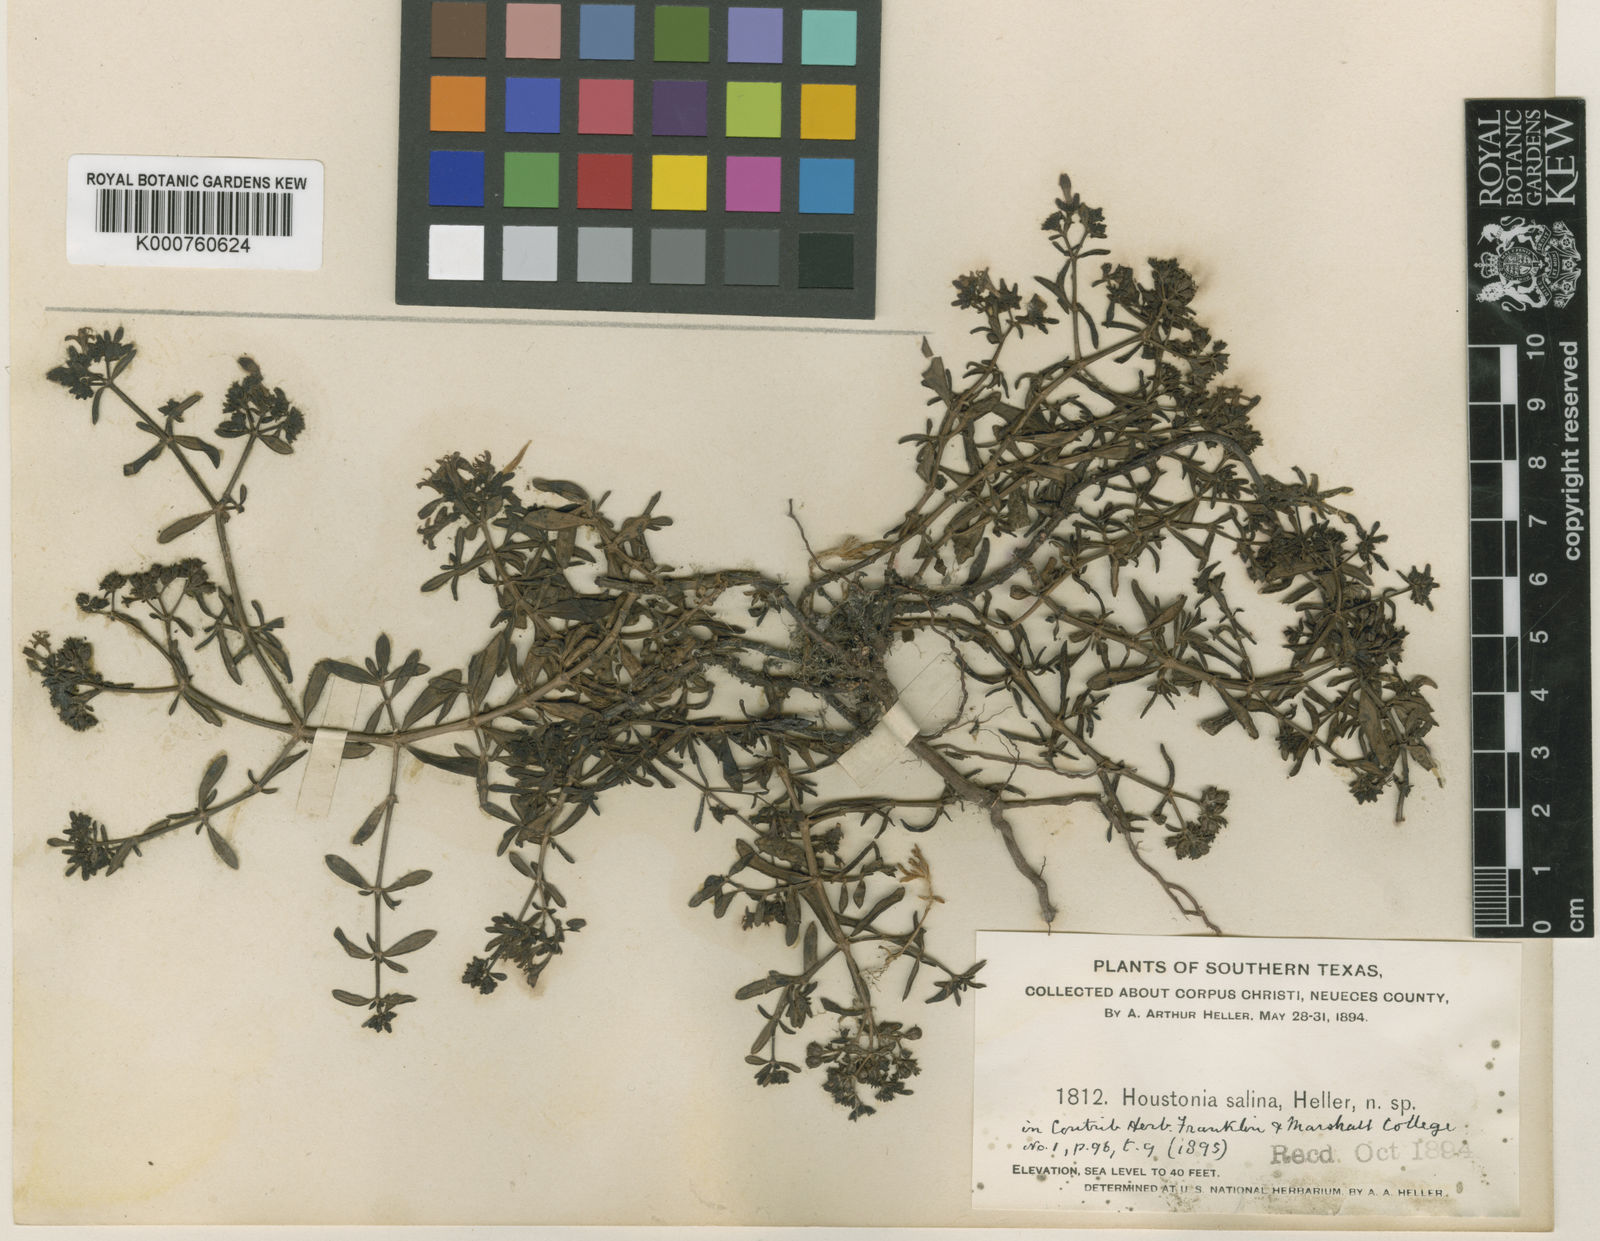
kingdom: Plantae
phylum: Tracheophyta
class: Magnoliopsida
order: Gentianales
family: Rubiaceae
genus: Stenaria
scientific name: Stenaria
